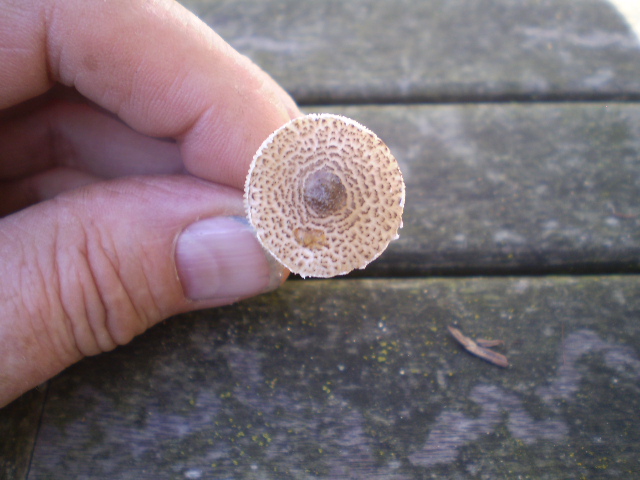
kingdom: Fungi
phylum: Basidiomycota
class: Agaricomycetes
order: Agaricales
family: Agaricaceae
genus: Lepiota
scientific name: Lepiota felina
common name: sortskællet parasolhat
